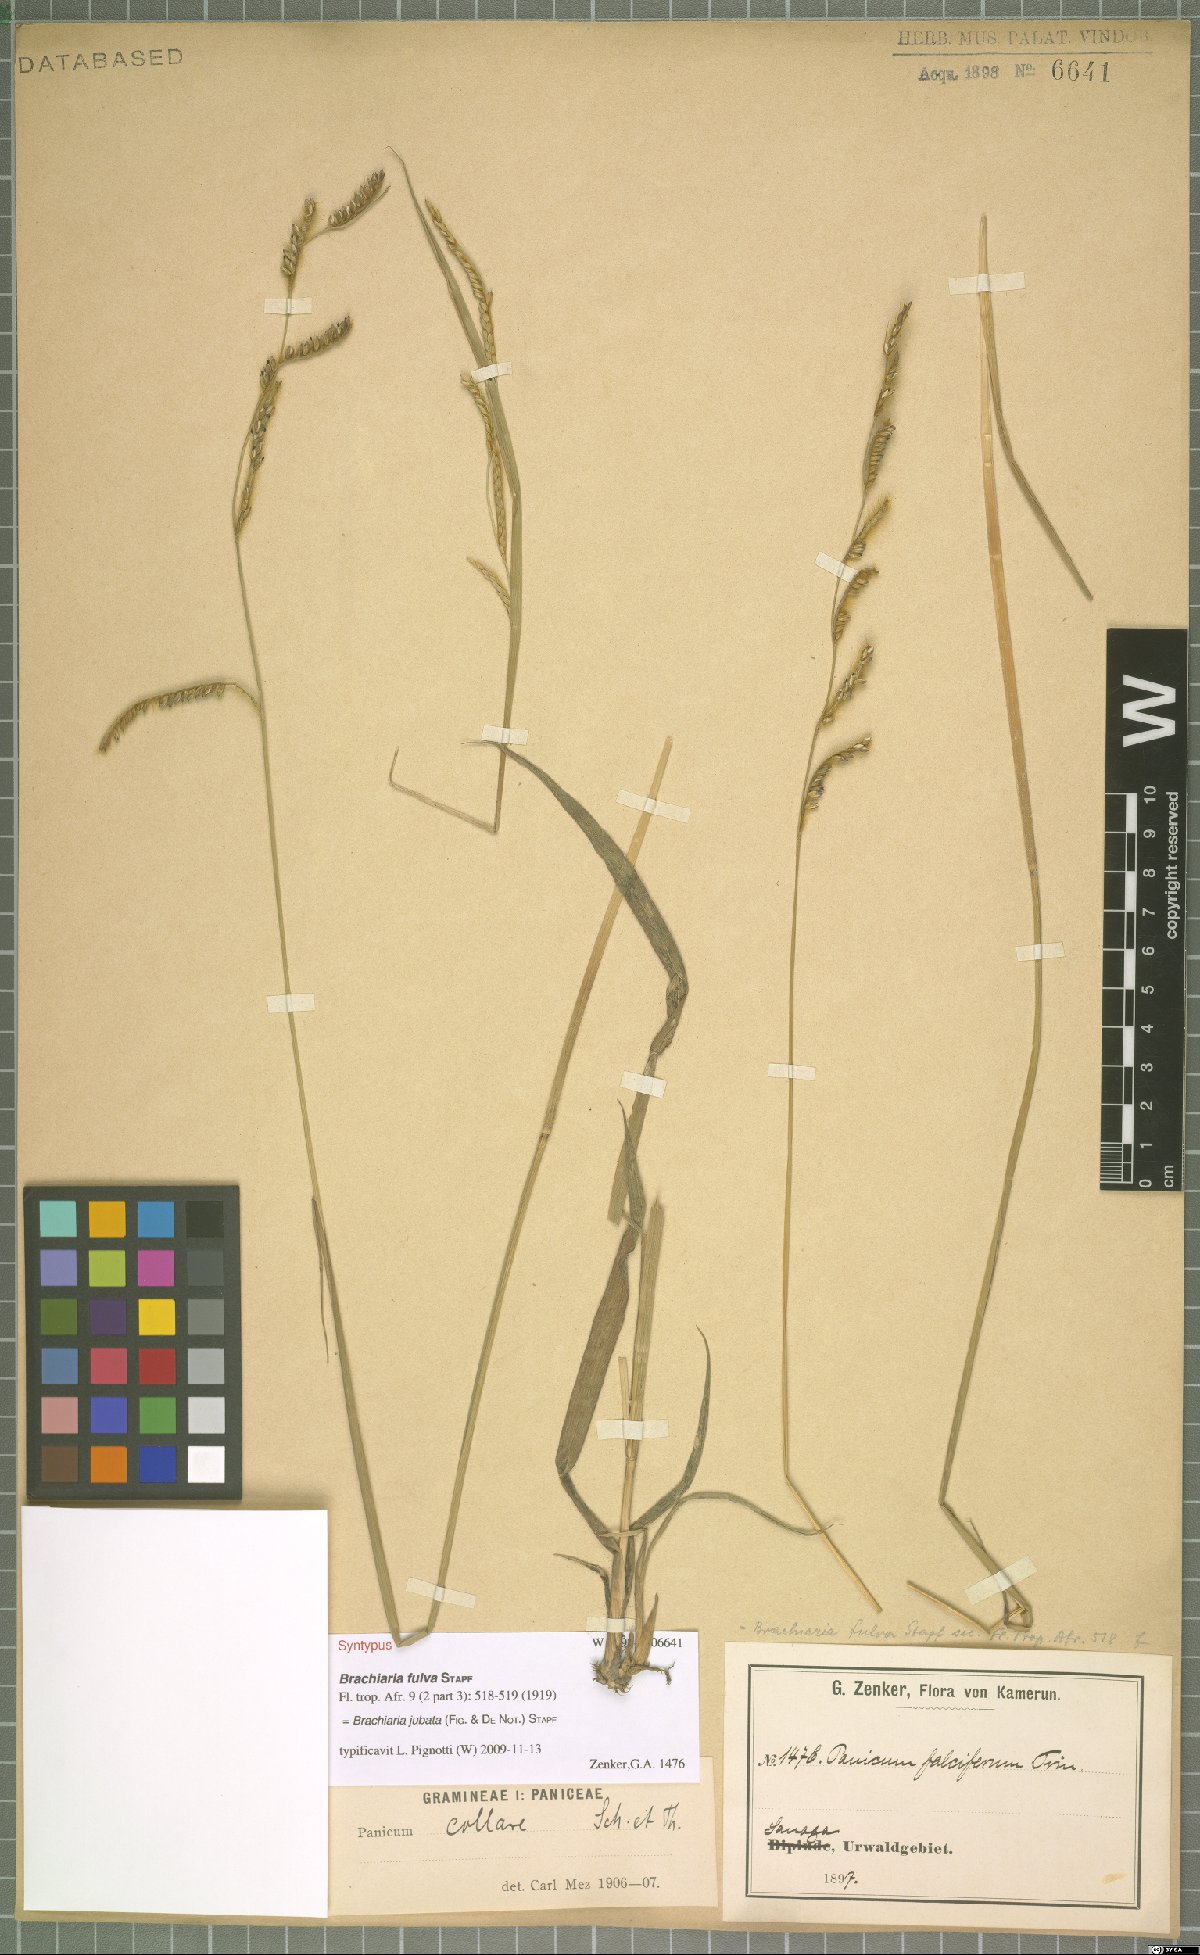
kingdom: Plantae
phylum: Tracheophyta
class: Liliopsida
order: Poales
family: Poaceae
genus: Urochloa
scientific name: Urochloa jubata
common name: Buffalograss
